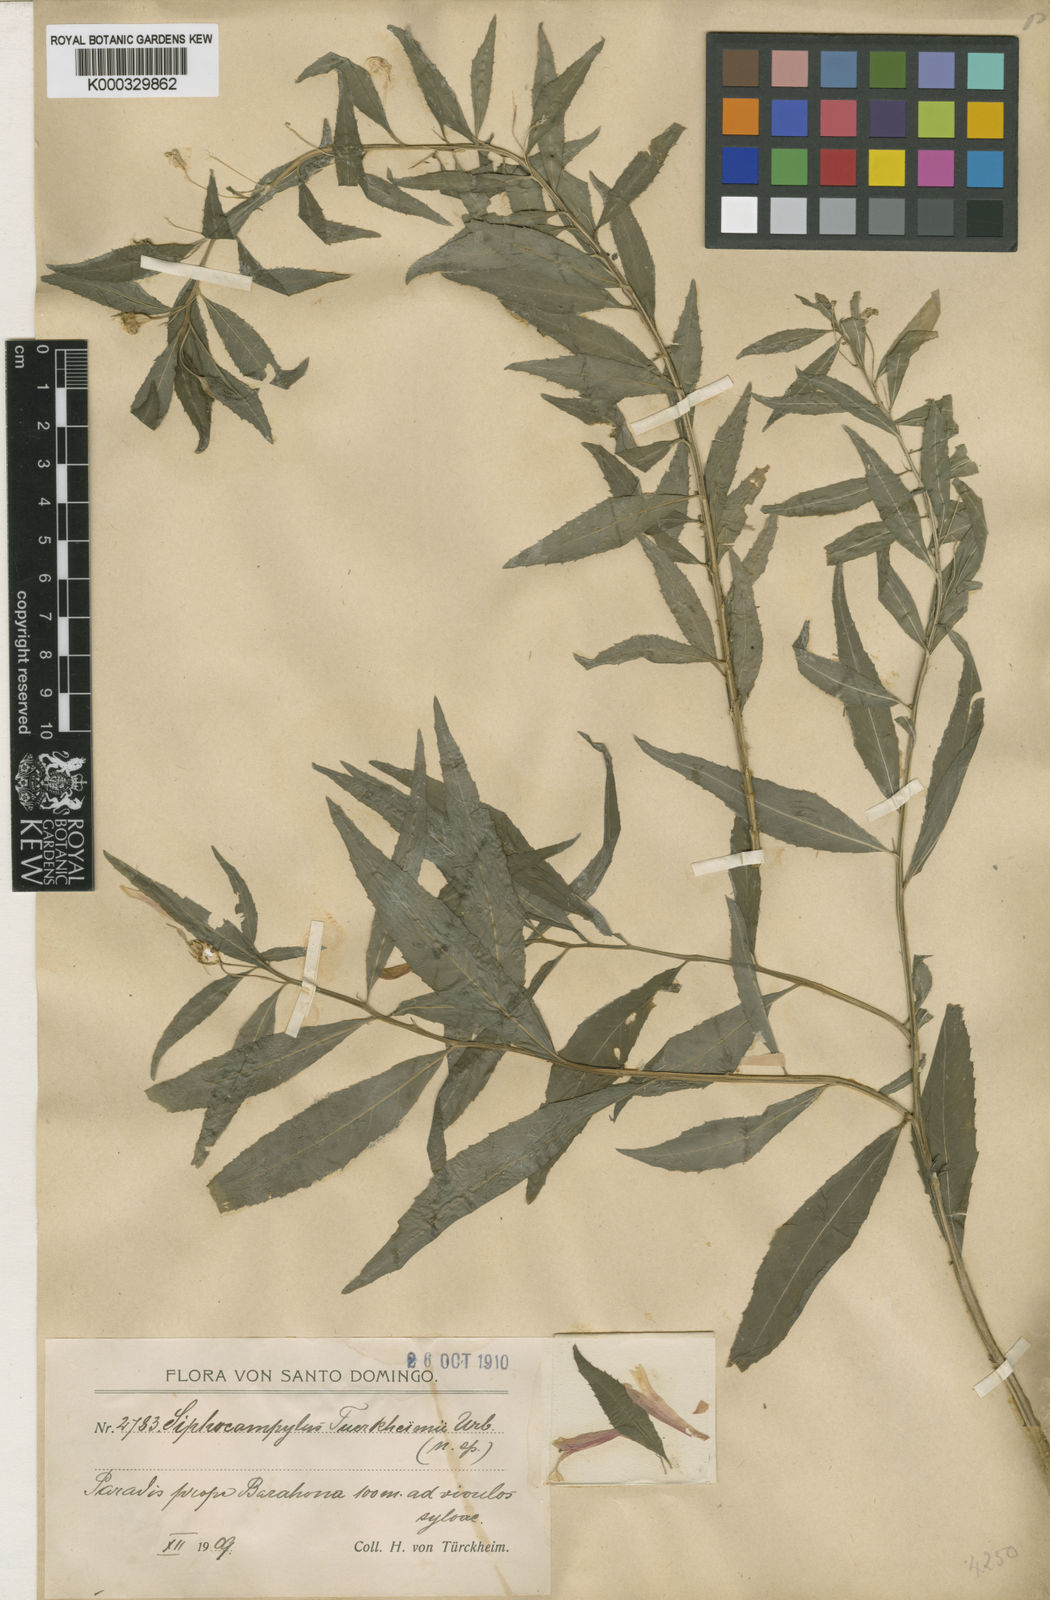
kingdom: Plantae
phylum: Tracheophyta
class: Magnoliopsida
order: Asterales
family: Campanulaceae
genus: Siphocampylus
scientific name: Siphocampylus sonchifolius
